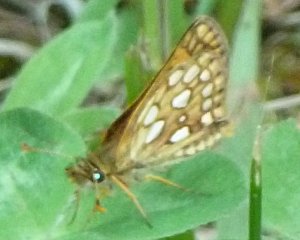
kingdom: Animalia
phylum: Arthropoda
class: Insecta
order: Lepidoptera
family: Hesperiidae
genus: Carterocephalus
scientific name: Carterocephalus palaemon
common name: Chequered Skipper
